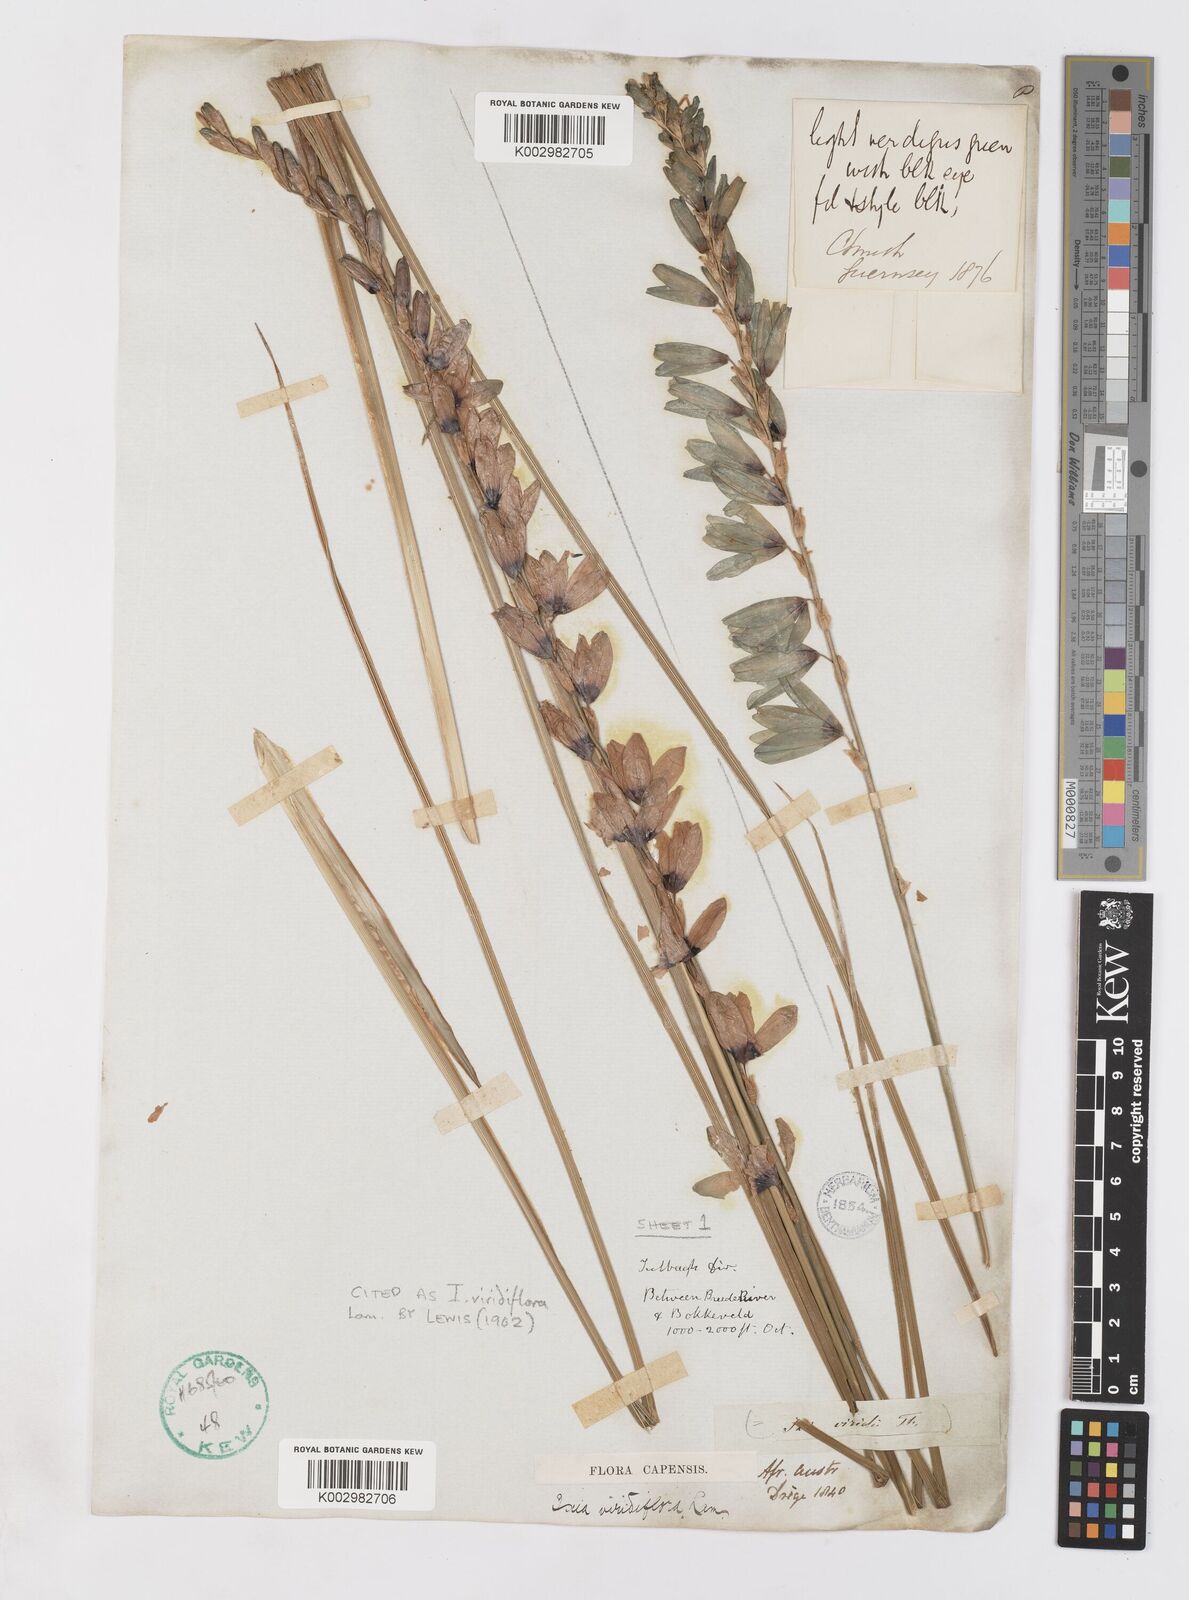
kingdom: Plantae
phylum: Tracheophyta
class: Liliopsida
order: Asparagales
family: Iridaceae
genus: Ixia
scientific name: Ixia viridiflora
